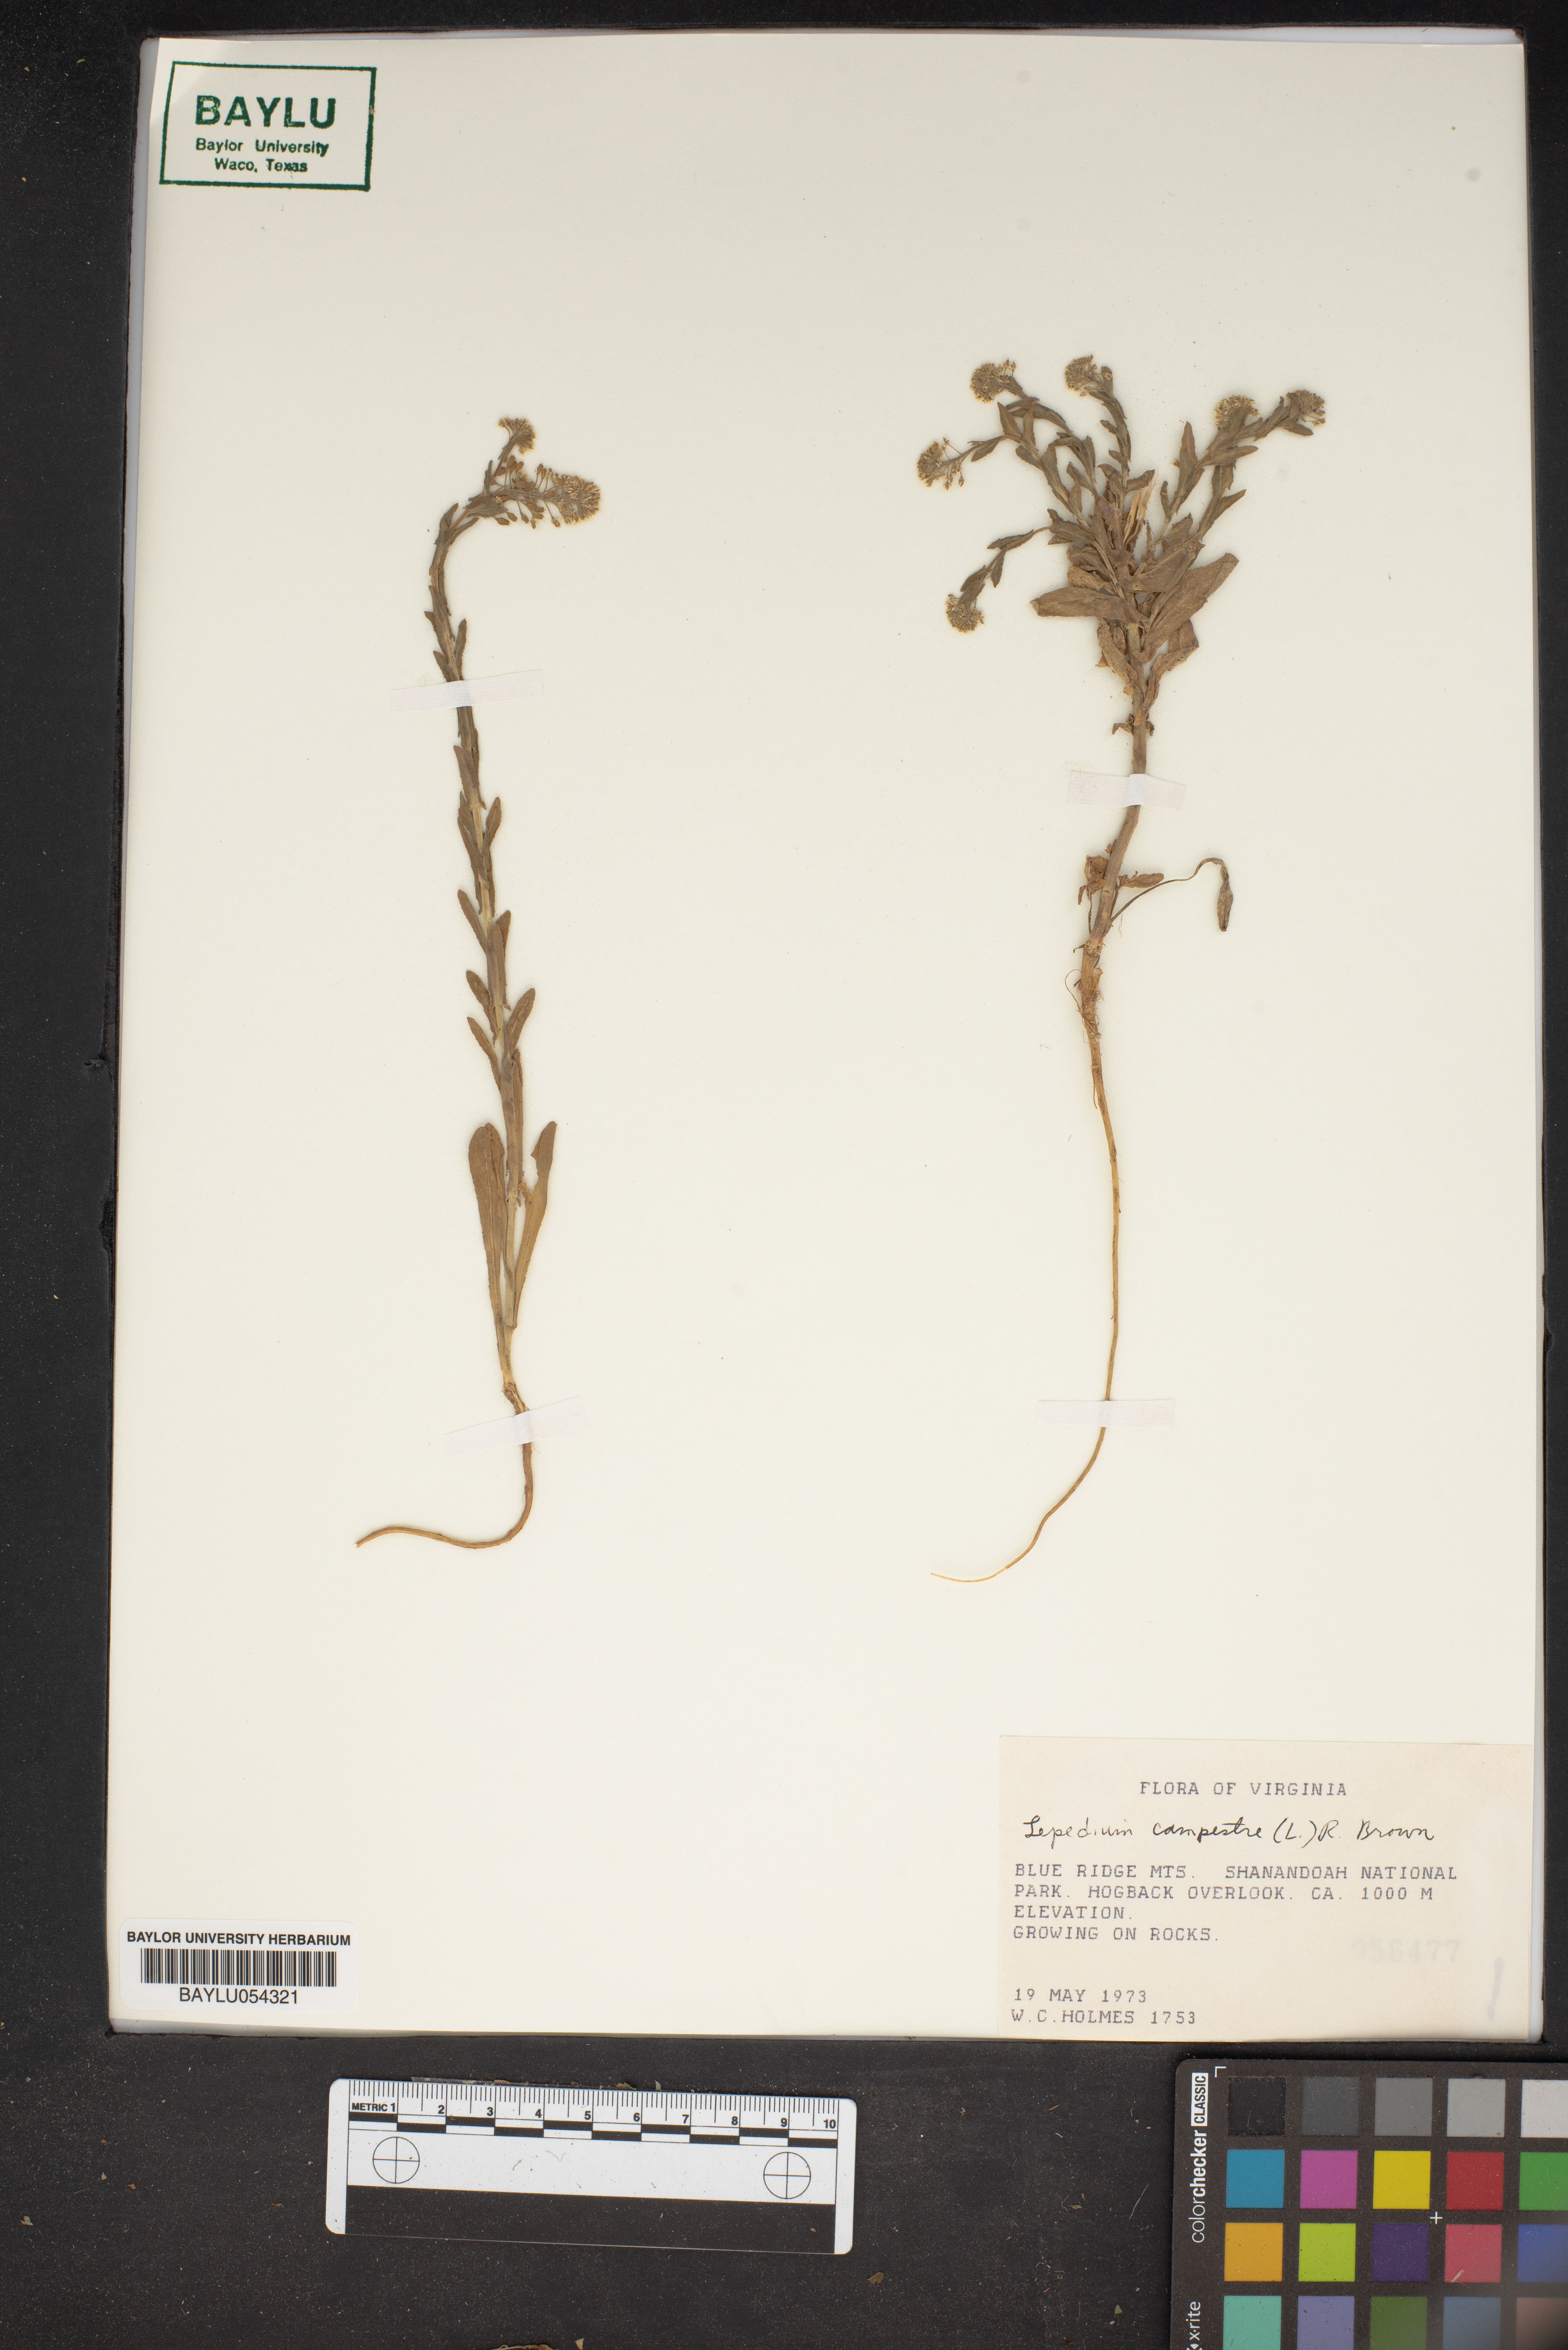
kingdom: Plantae
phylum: Tracheophyta
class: Magnoliopsida
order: Brassicales
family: Brassicaceae
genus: Lepidium
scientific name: Lepidium campestre
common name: Field pepperwort
